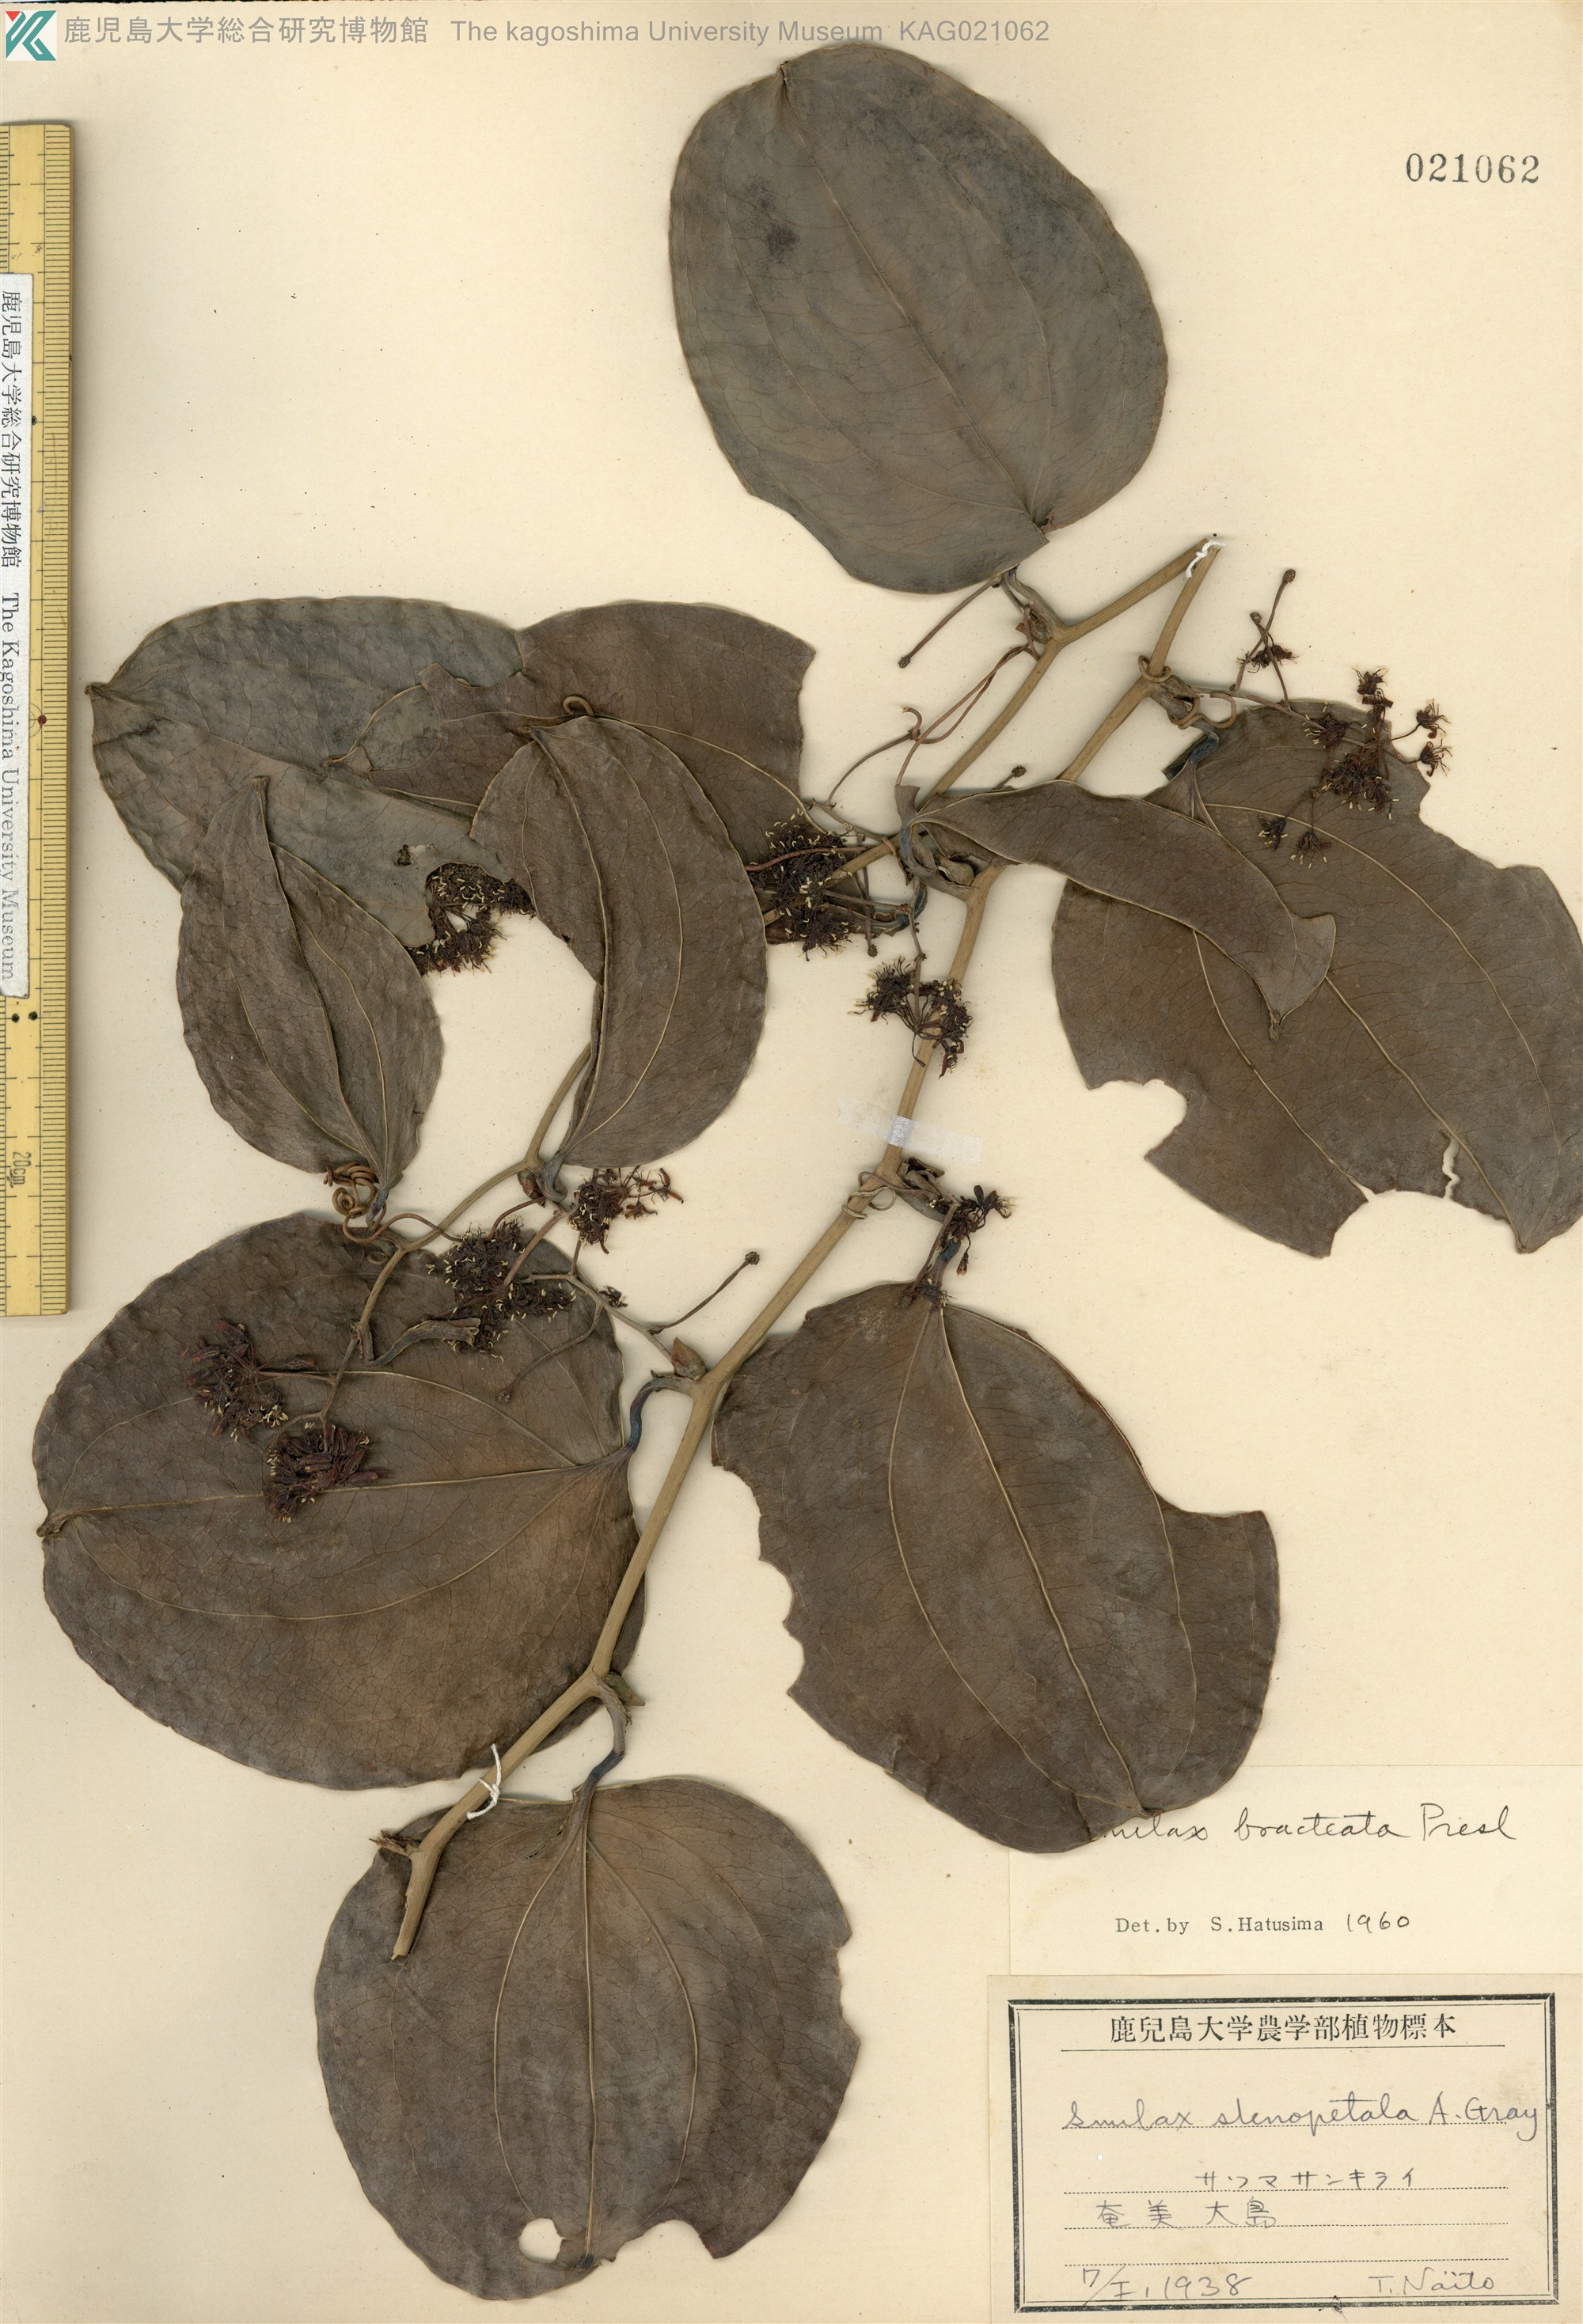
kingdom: Plantae
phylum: Tracheophyta
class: Liliopsida
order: Liliales
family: Smilacaceae
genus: Smilax
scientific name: Smilax bracteata
